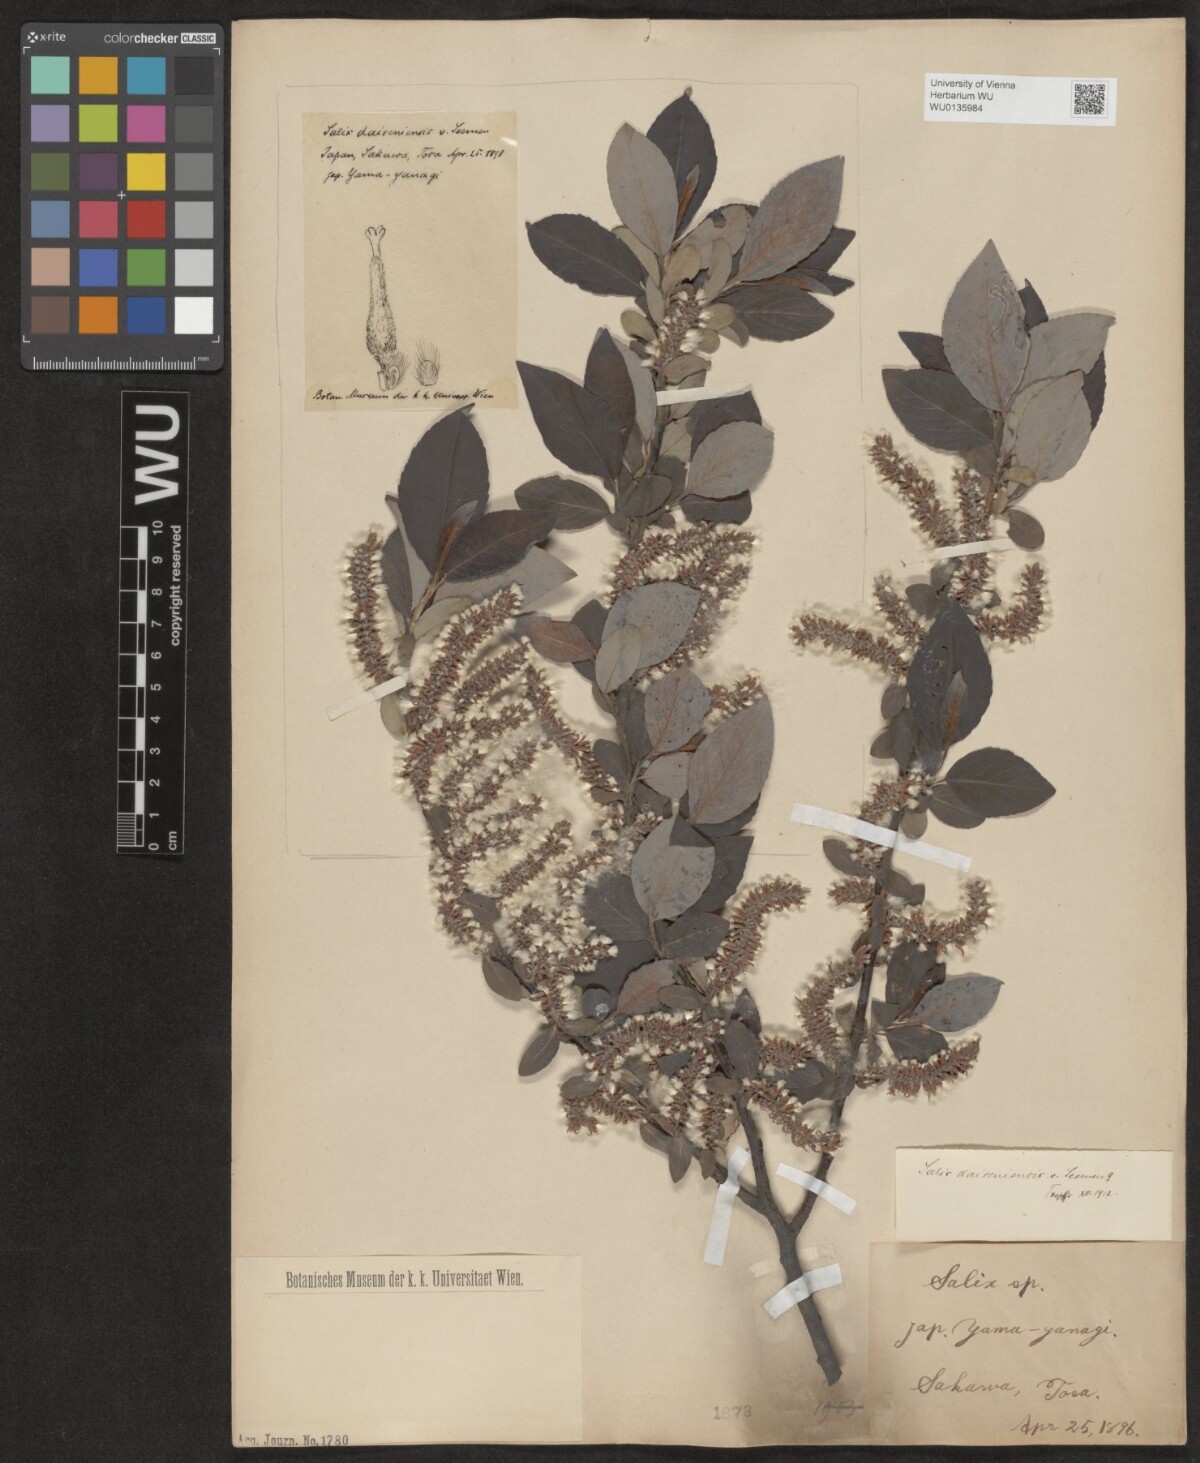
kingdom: Plantae
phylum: Tracheophyta
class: Magnoliopsida
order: Malpighiales
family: Salicaceae
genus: Salix
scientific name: Salix sieboldiana
